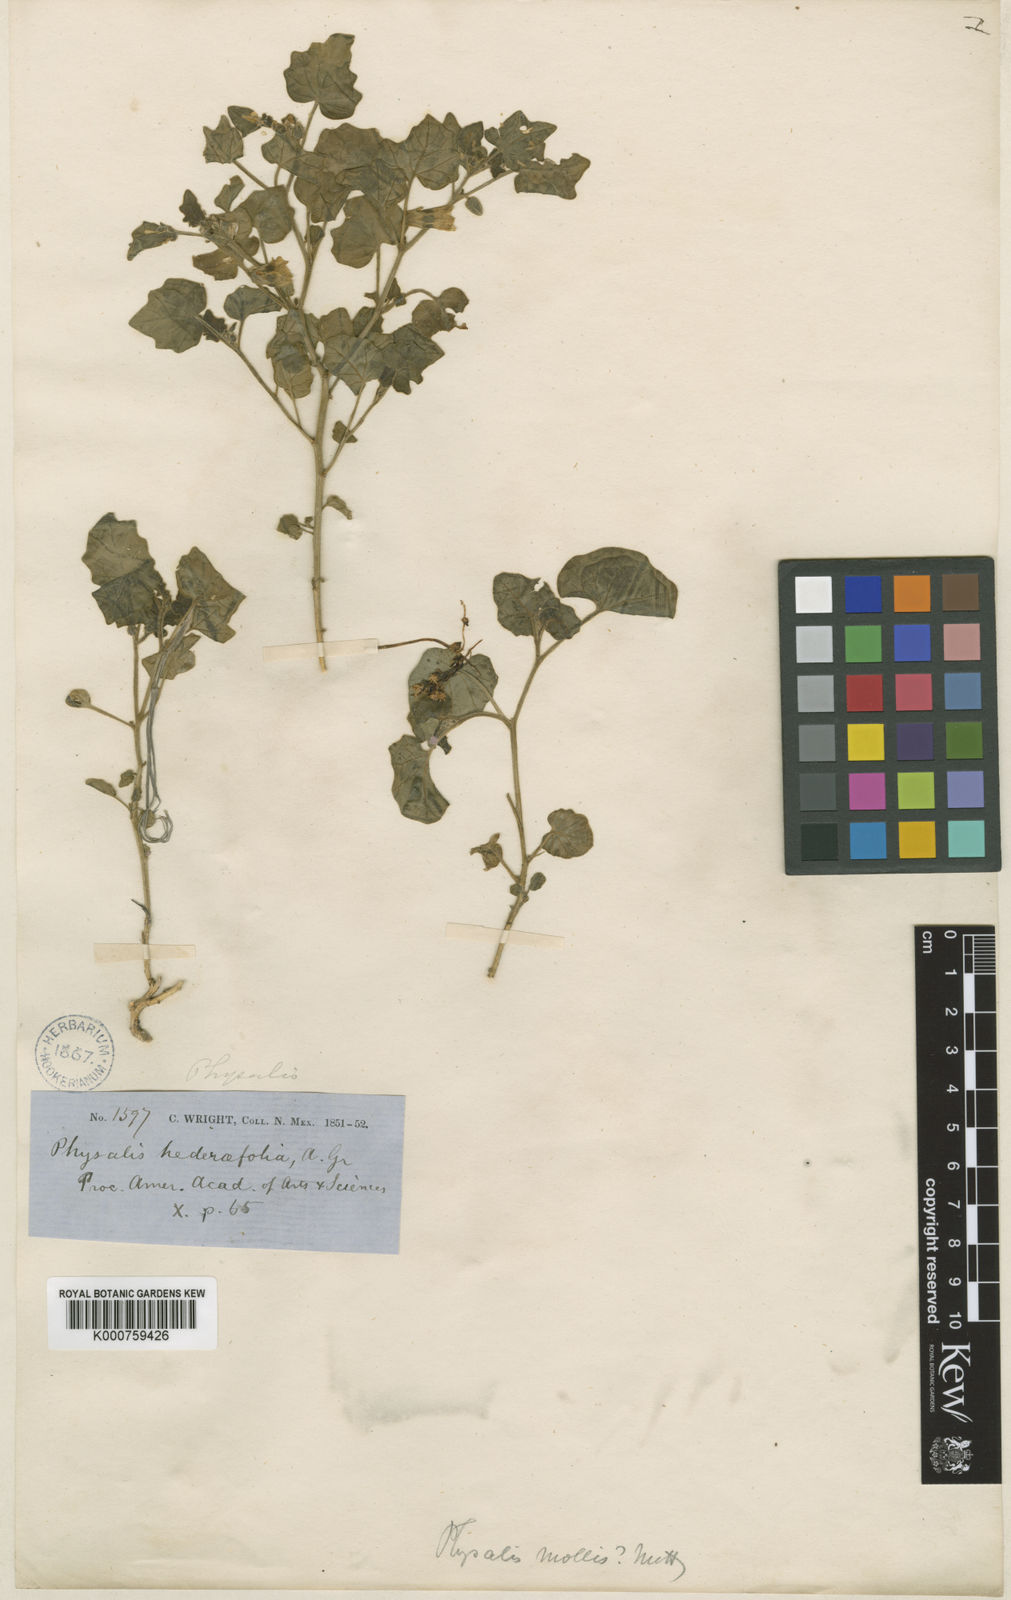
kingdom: Plantae
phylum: Tracheophyta
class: Magnoliopsida
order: Solanales
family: Solanaceae
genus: Physalis
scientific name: Physalis hederifolia
